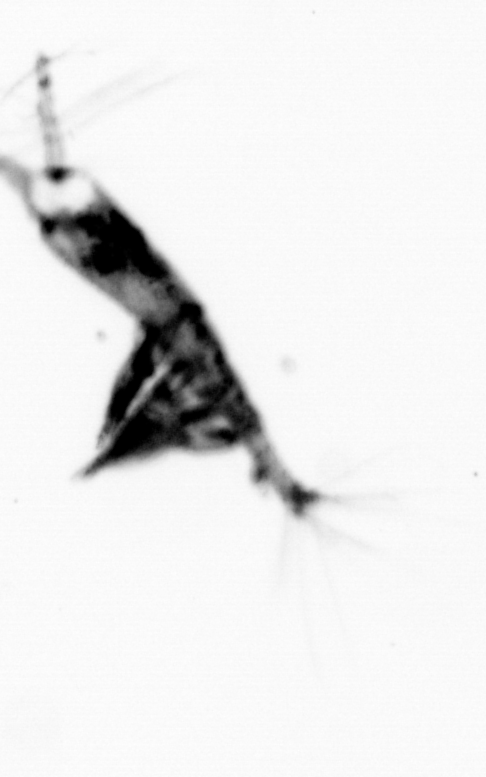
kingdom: Animalia
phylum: Arthropoda
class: Copepoda
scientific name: Copepoda
